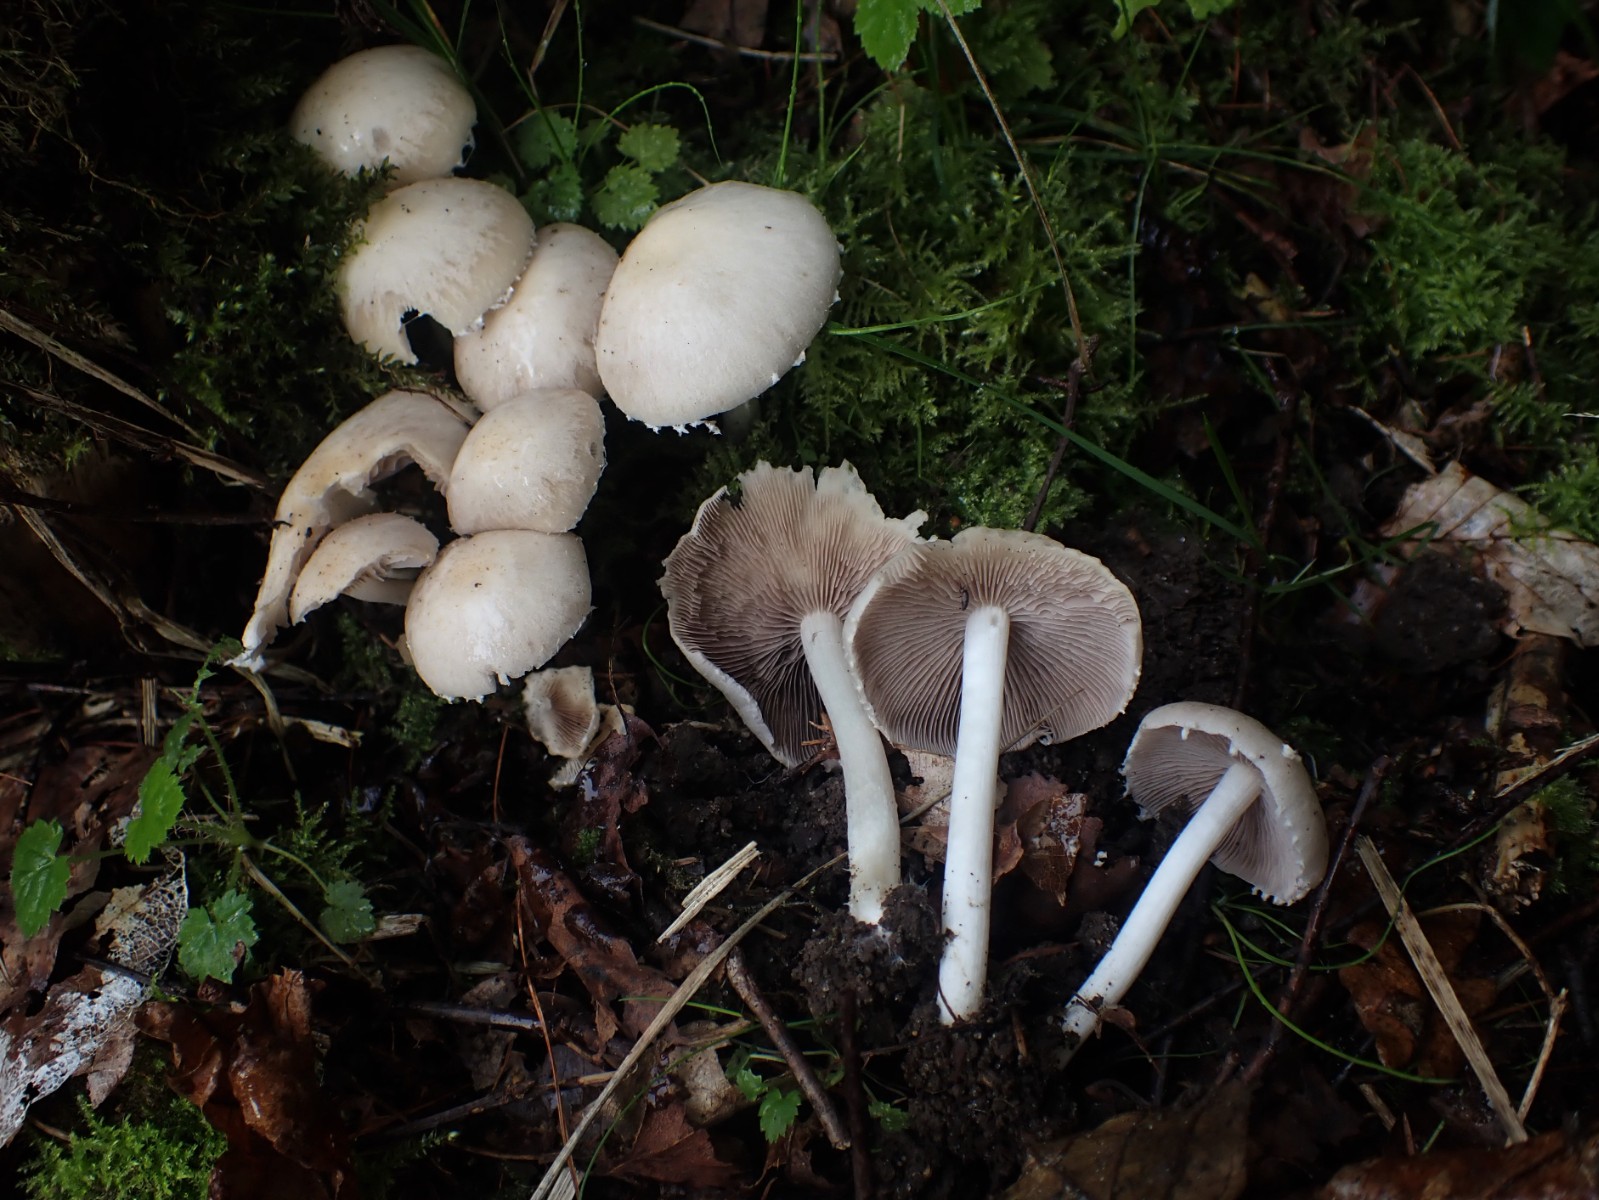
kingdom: Fungi
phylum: Basidiomycota
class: Agaricomycetes
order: Agaricales
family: Psathyrellaceae
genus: Candolleomyces
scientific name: Candolleomyces candolleanus
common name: Candolles mørkhat
